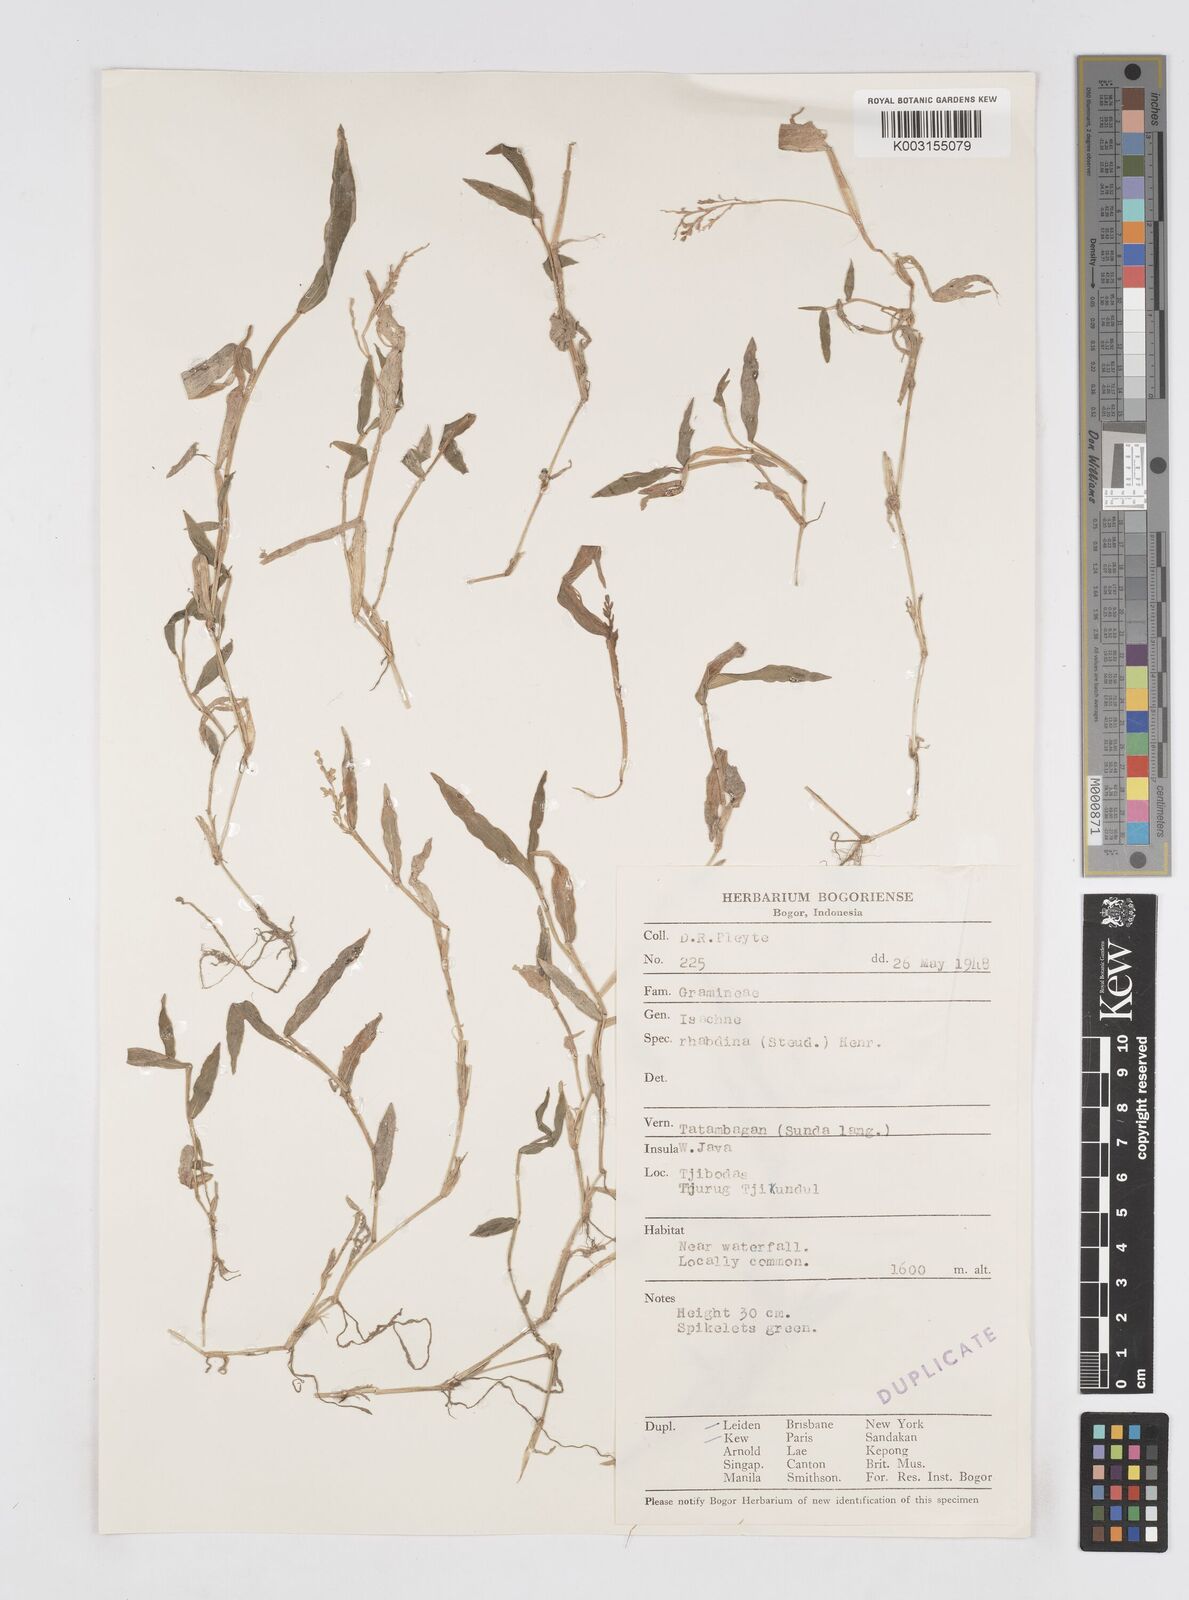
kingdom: Plantae
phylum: Tracheophyta
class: Liliopsida
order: Poales
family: Poaceae
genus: Isachne
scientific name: Isachne pangerangensis
